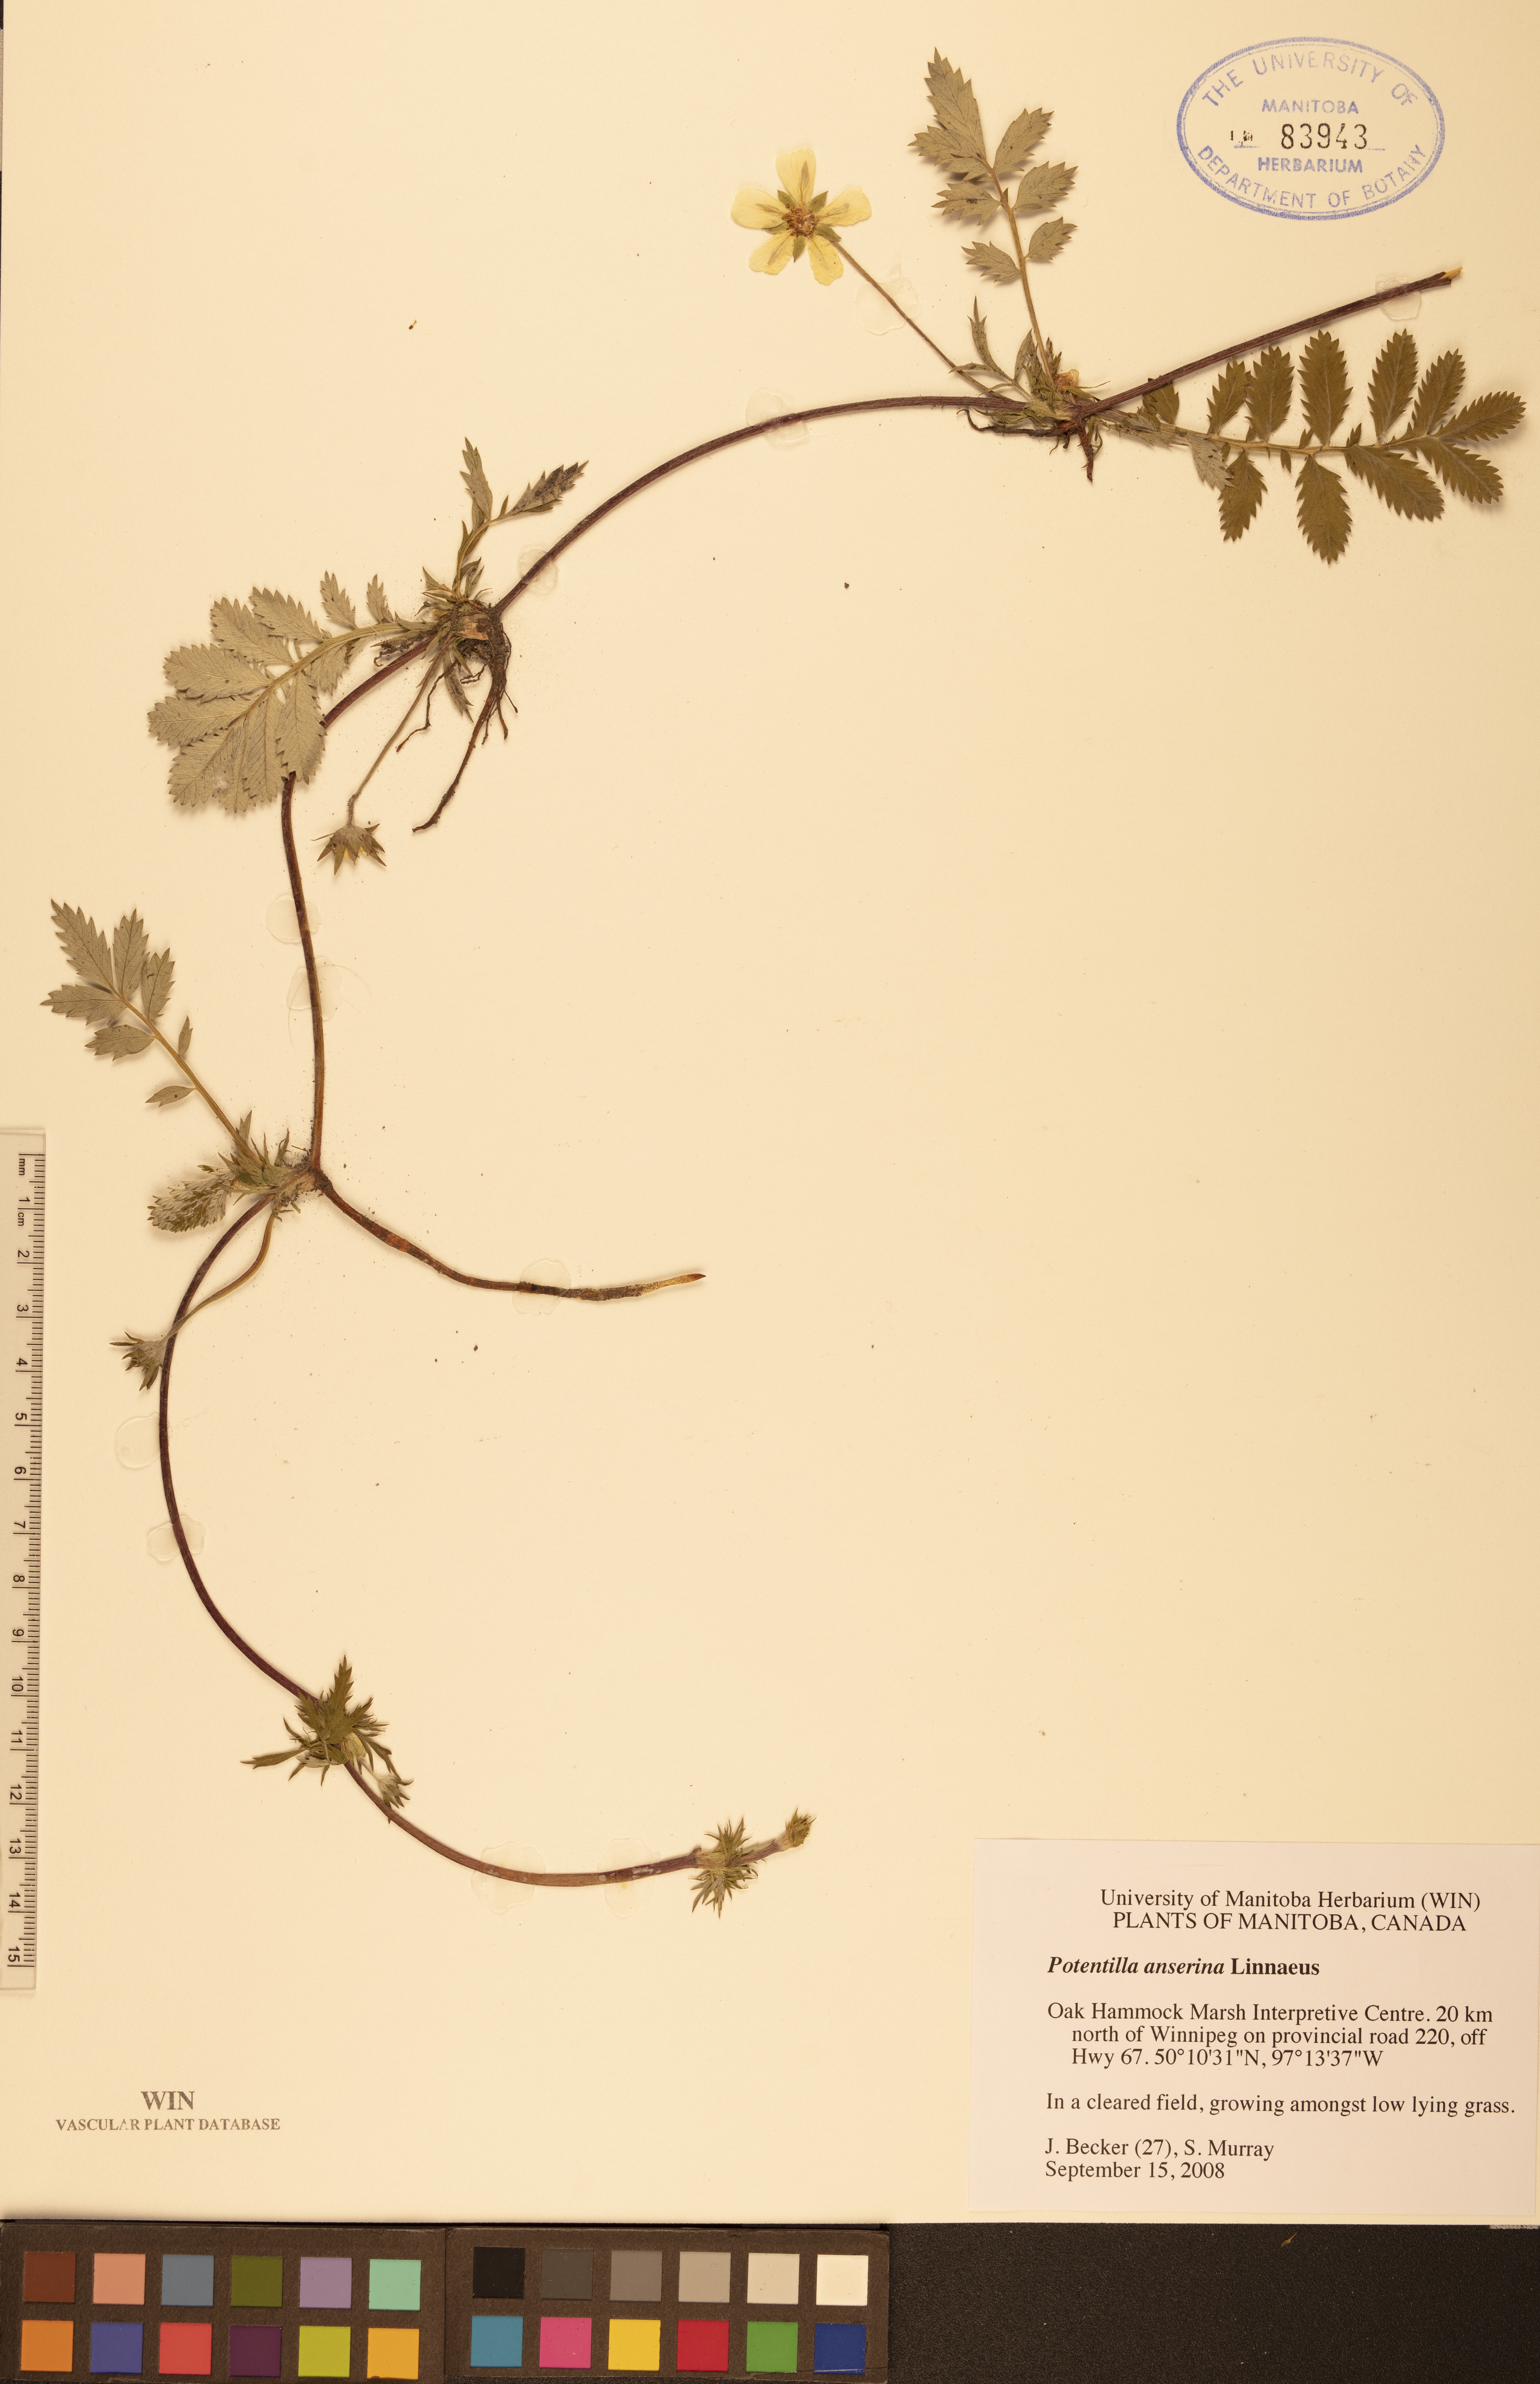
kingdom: Plantae
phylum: Tracheophyta
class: Magnoliopsida
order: Rosales
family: Rosaceae
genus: Argentina
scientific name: Argentina anserina
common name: Common silverweed
